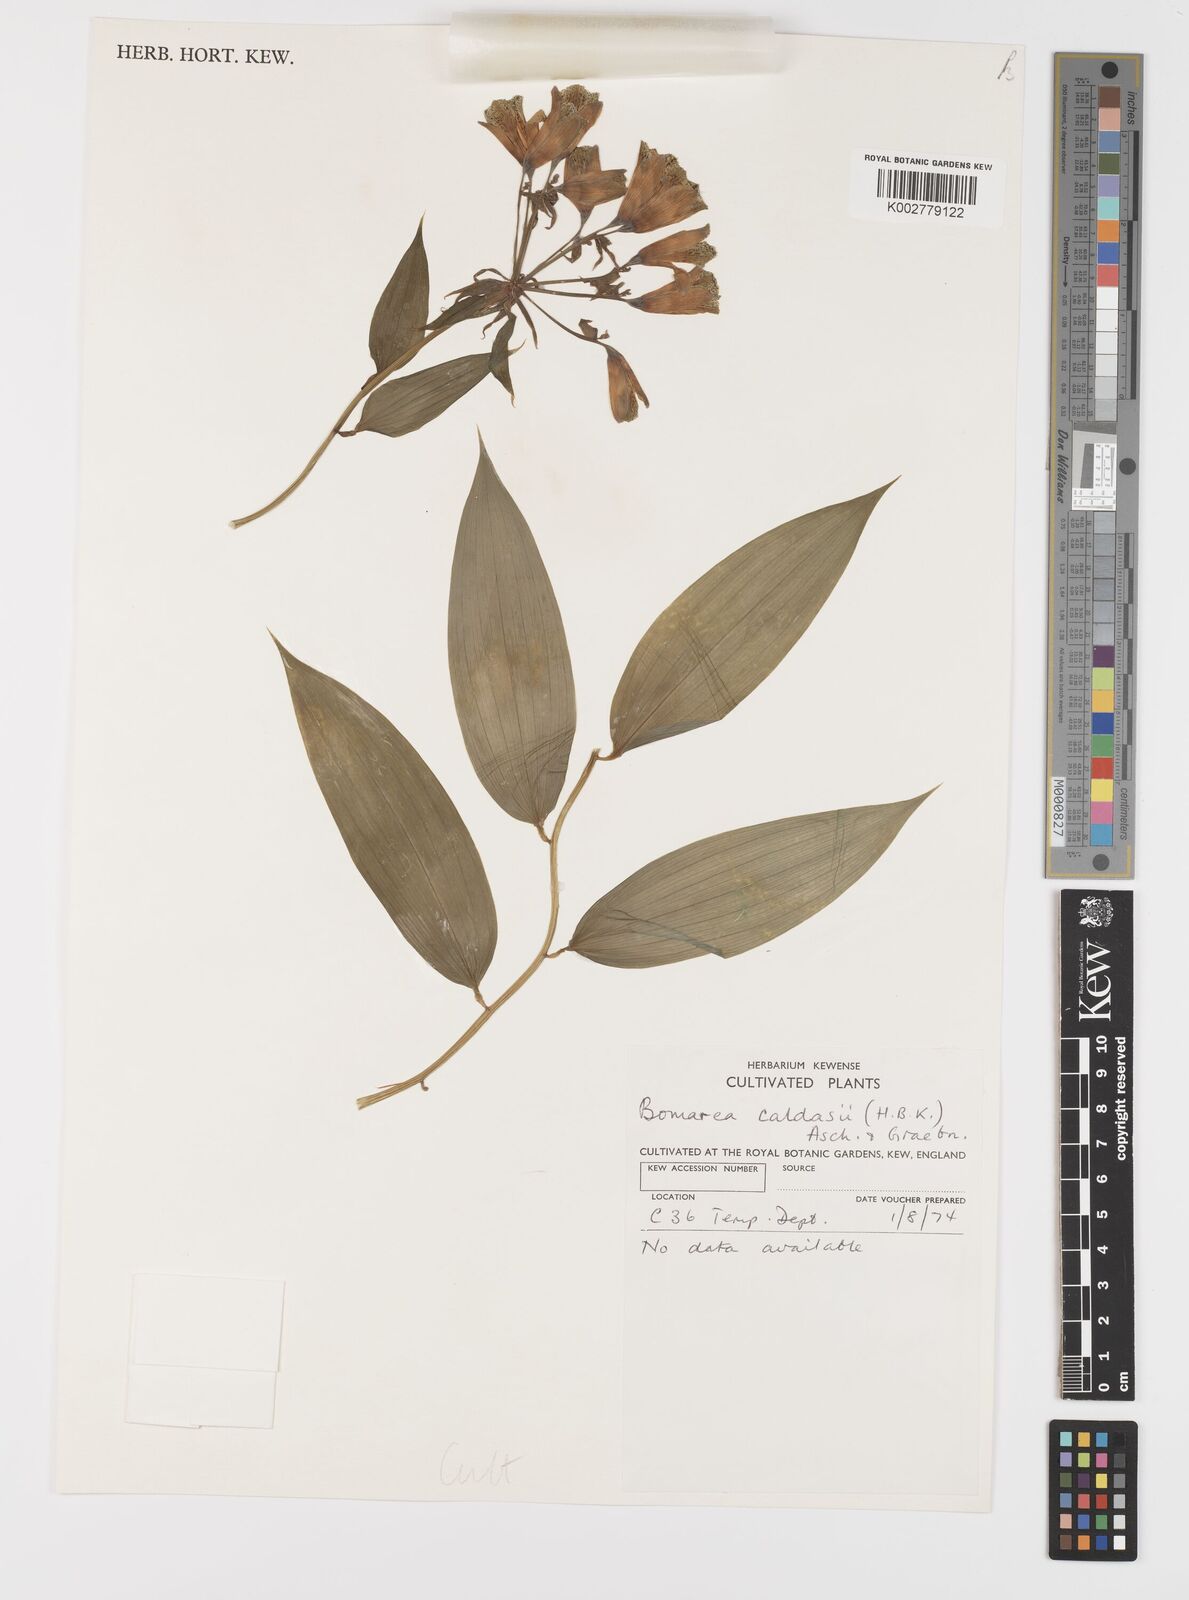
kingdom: Plantae
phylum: Tracheophyta
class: Liliopsida
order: Liliales
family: Alstroemeriaceae
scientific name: Alstroemeriaceae
